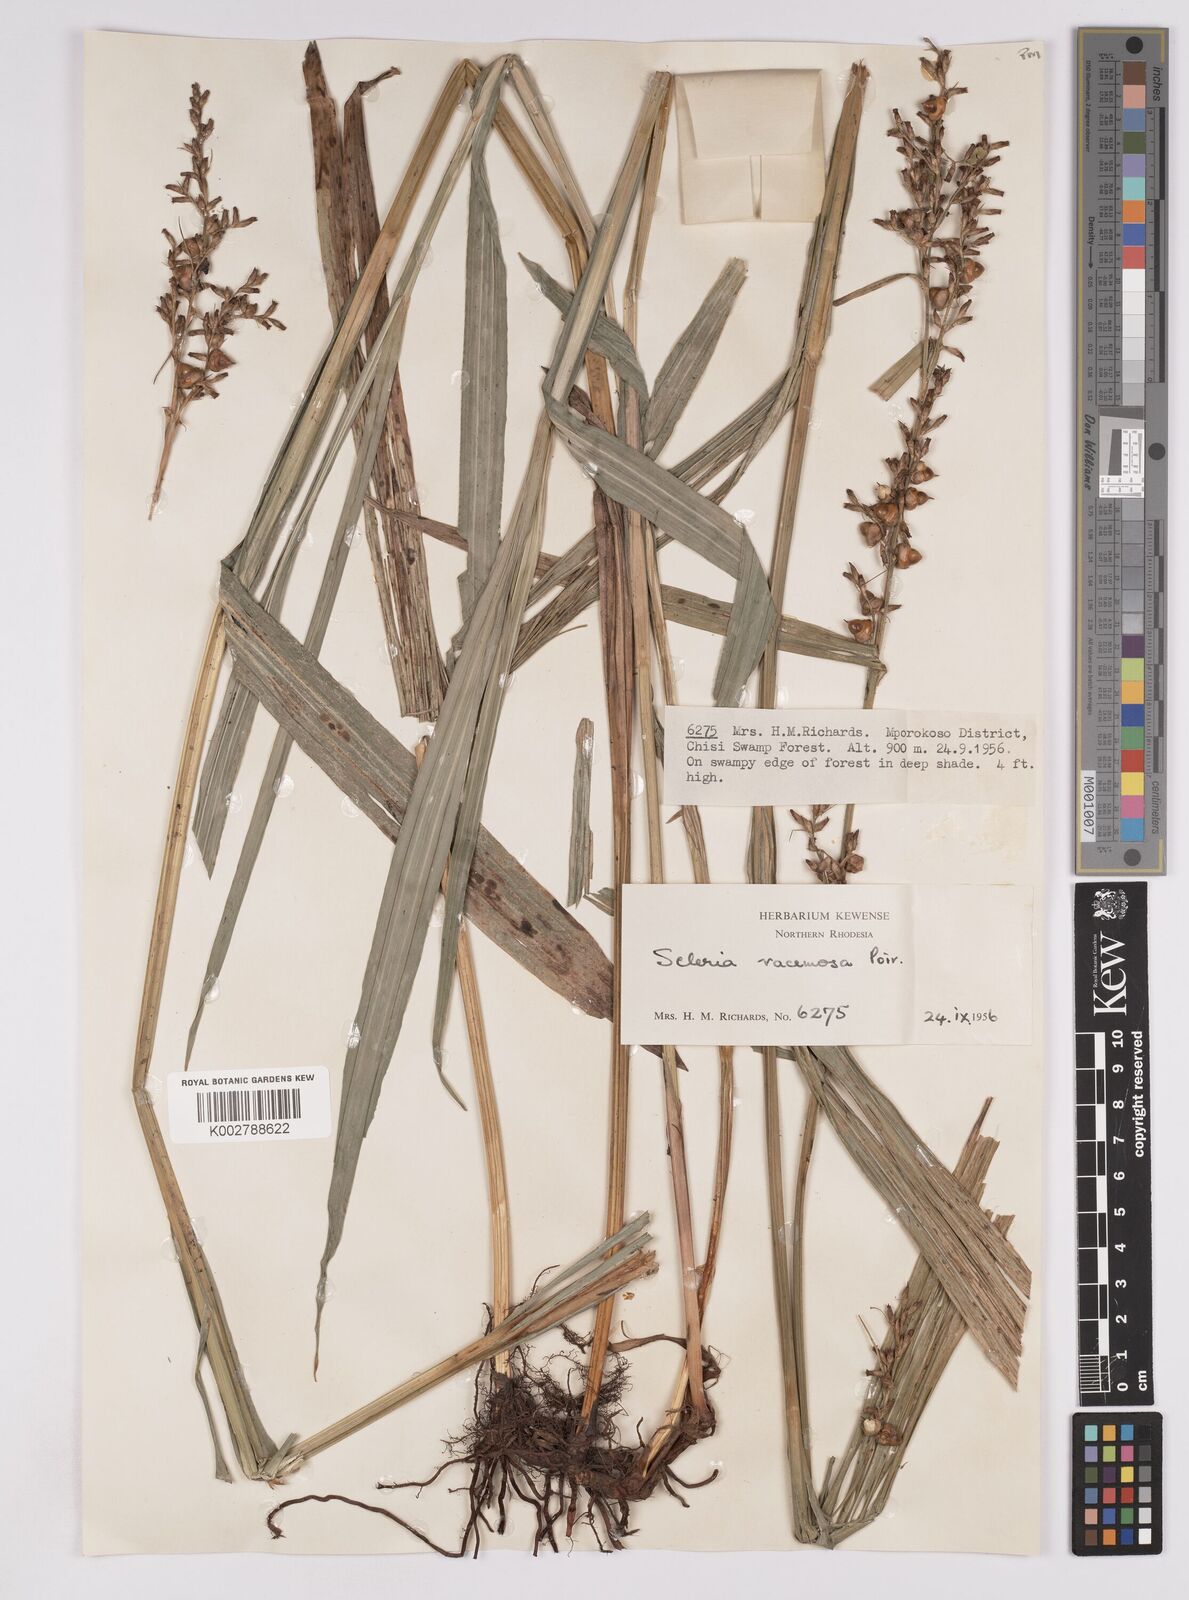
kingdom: Plantae
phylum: Tracheophyta
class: Liliopsida
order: Poales
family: Cyperaceae
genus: Scleria
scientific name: Scleria racemosa
